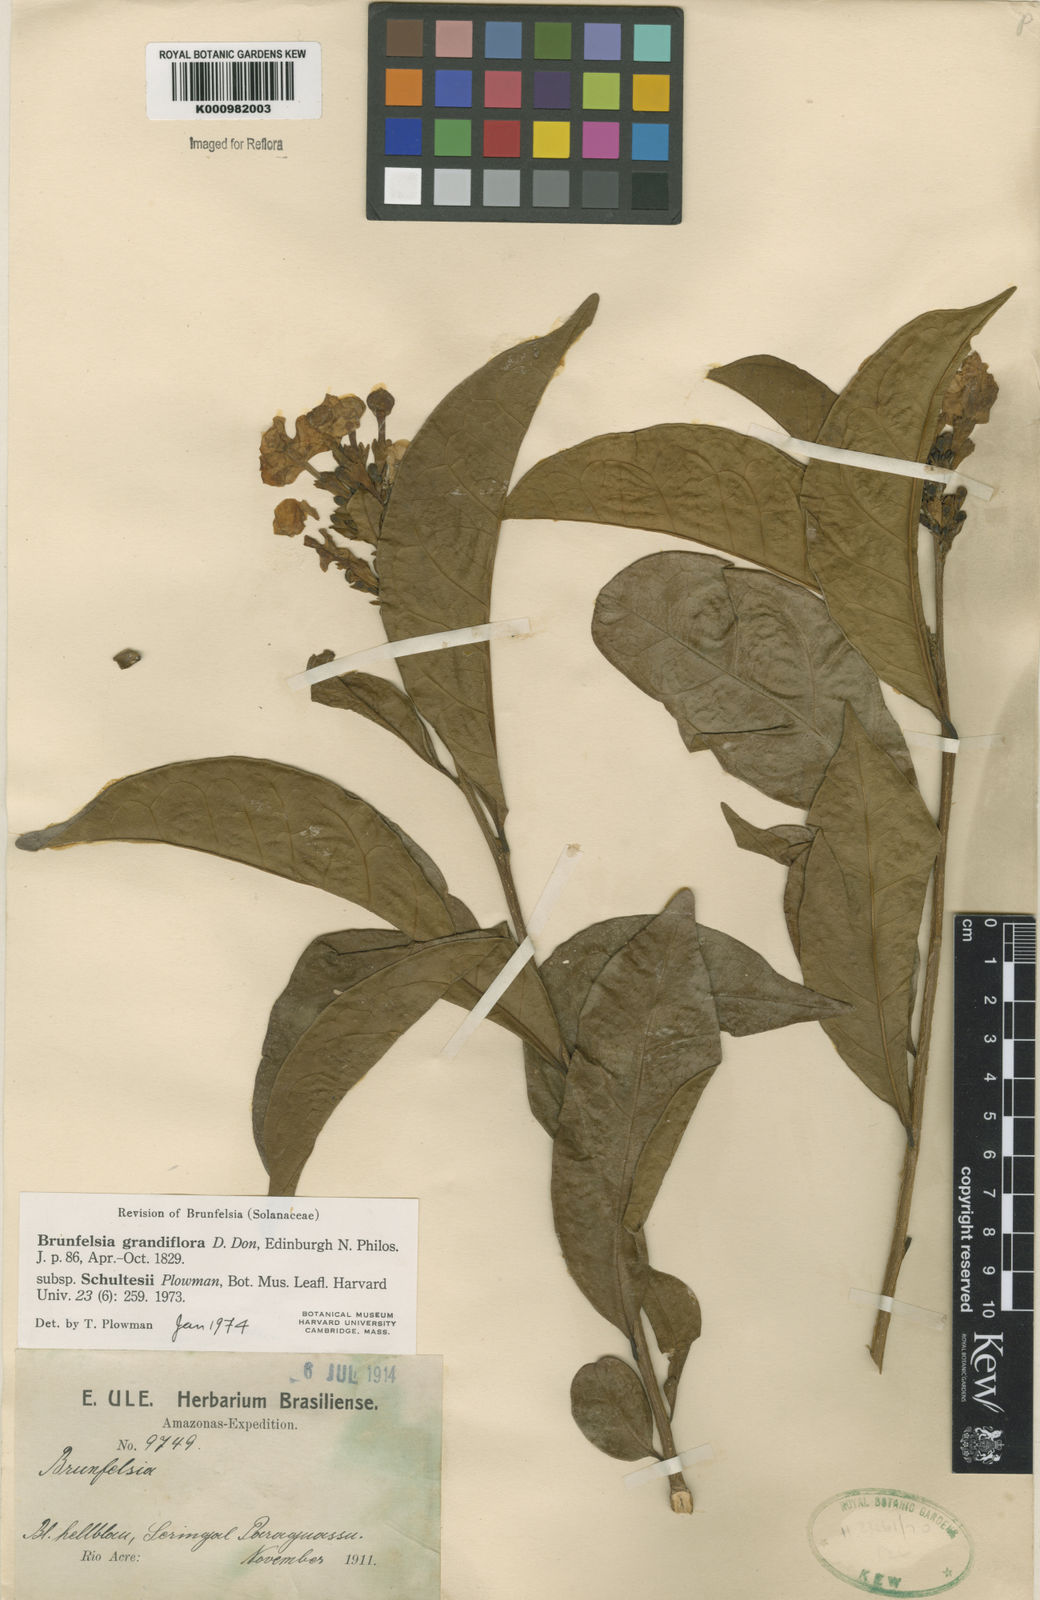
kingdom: Plantae
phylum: Tracheophyta
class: Magnoliopsida
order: Solanales
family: Solanaceae
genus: Brunfelsia
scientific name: Brunfelsia grandiflora
